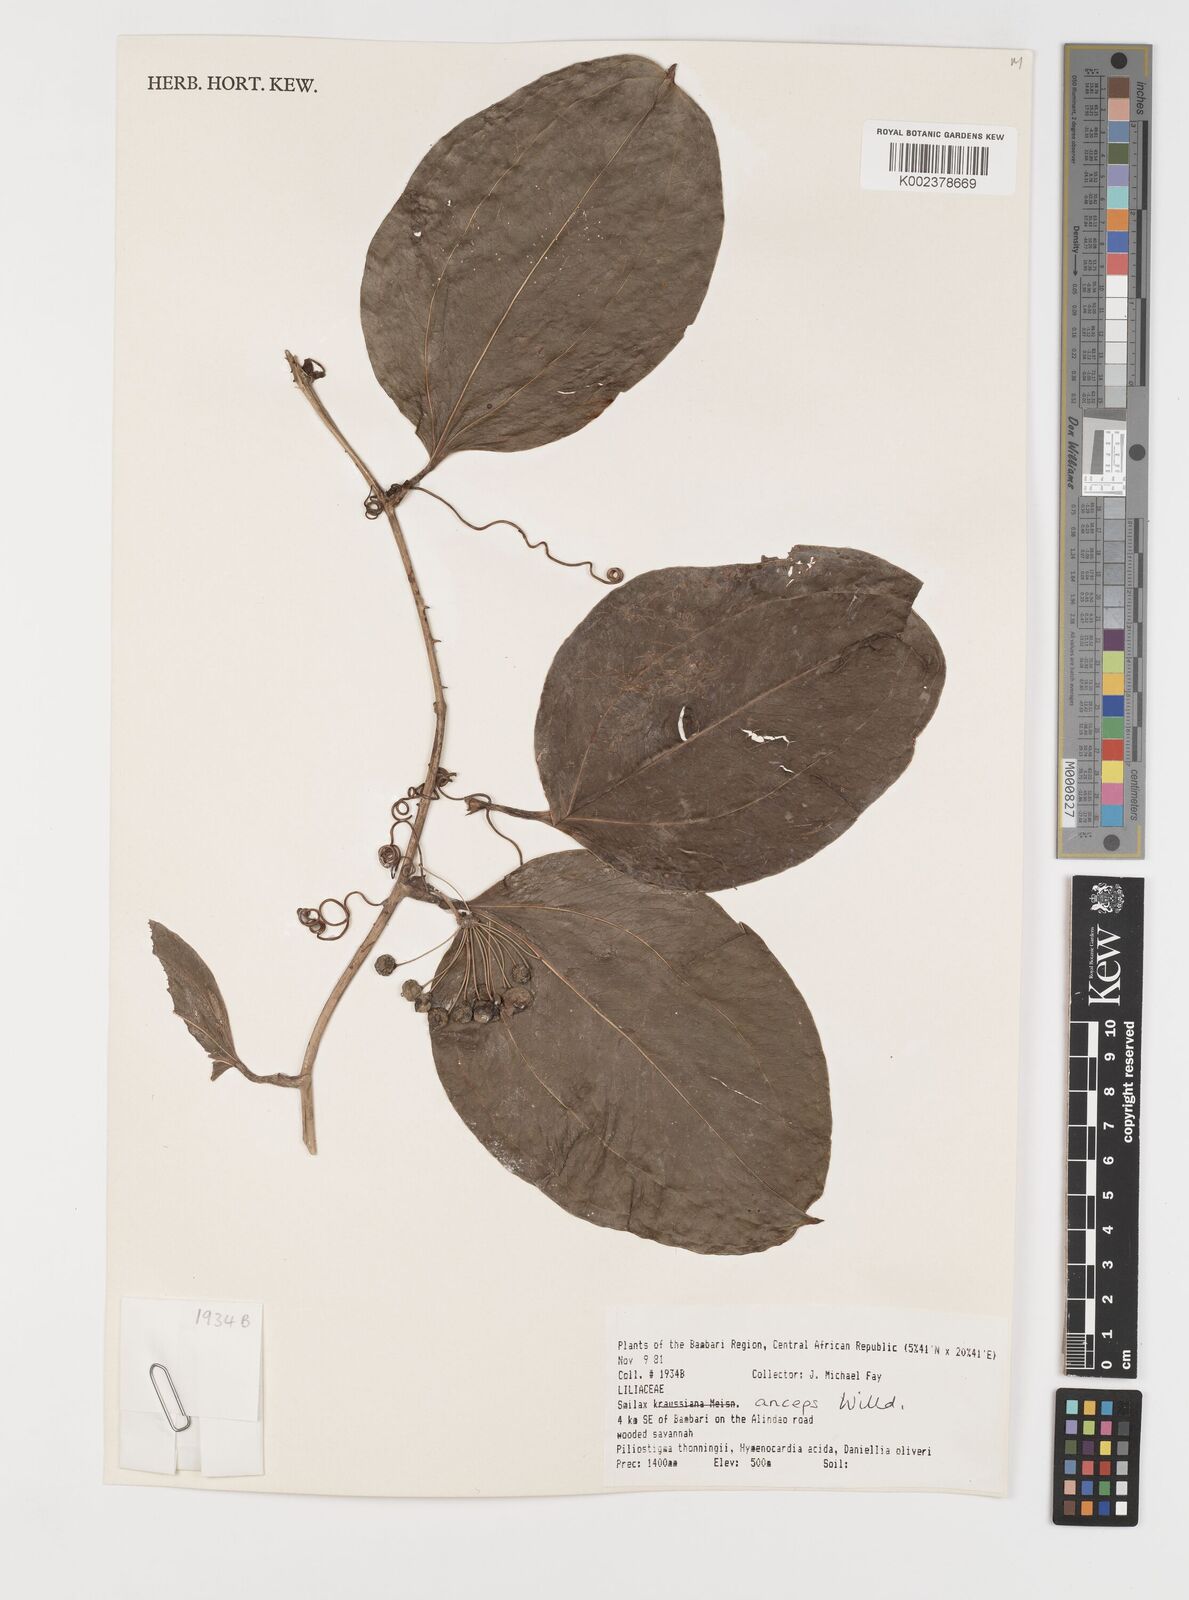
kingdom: Plantae
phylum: Tracheophyta
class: Liliopsida
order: Liliales
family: Smilacaceae
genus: Smilax
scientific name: Smilax anceps
